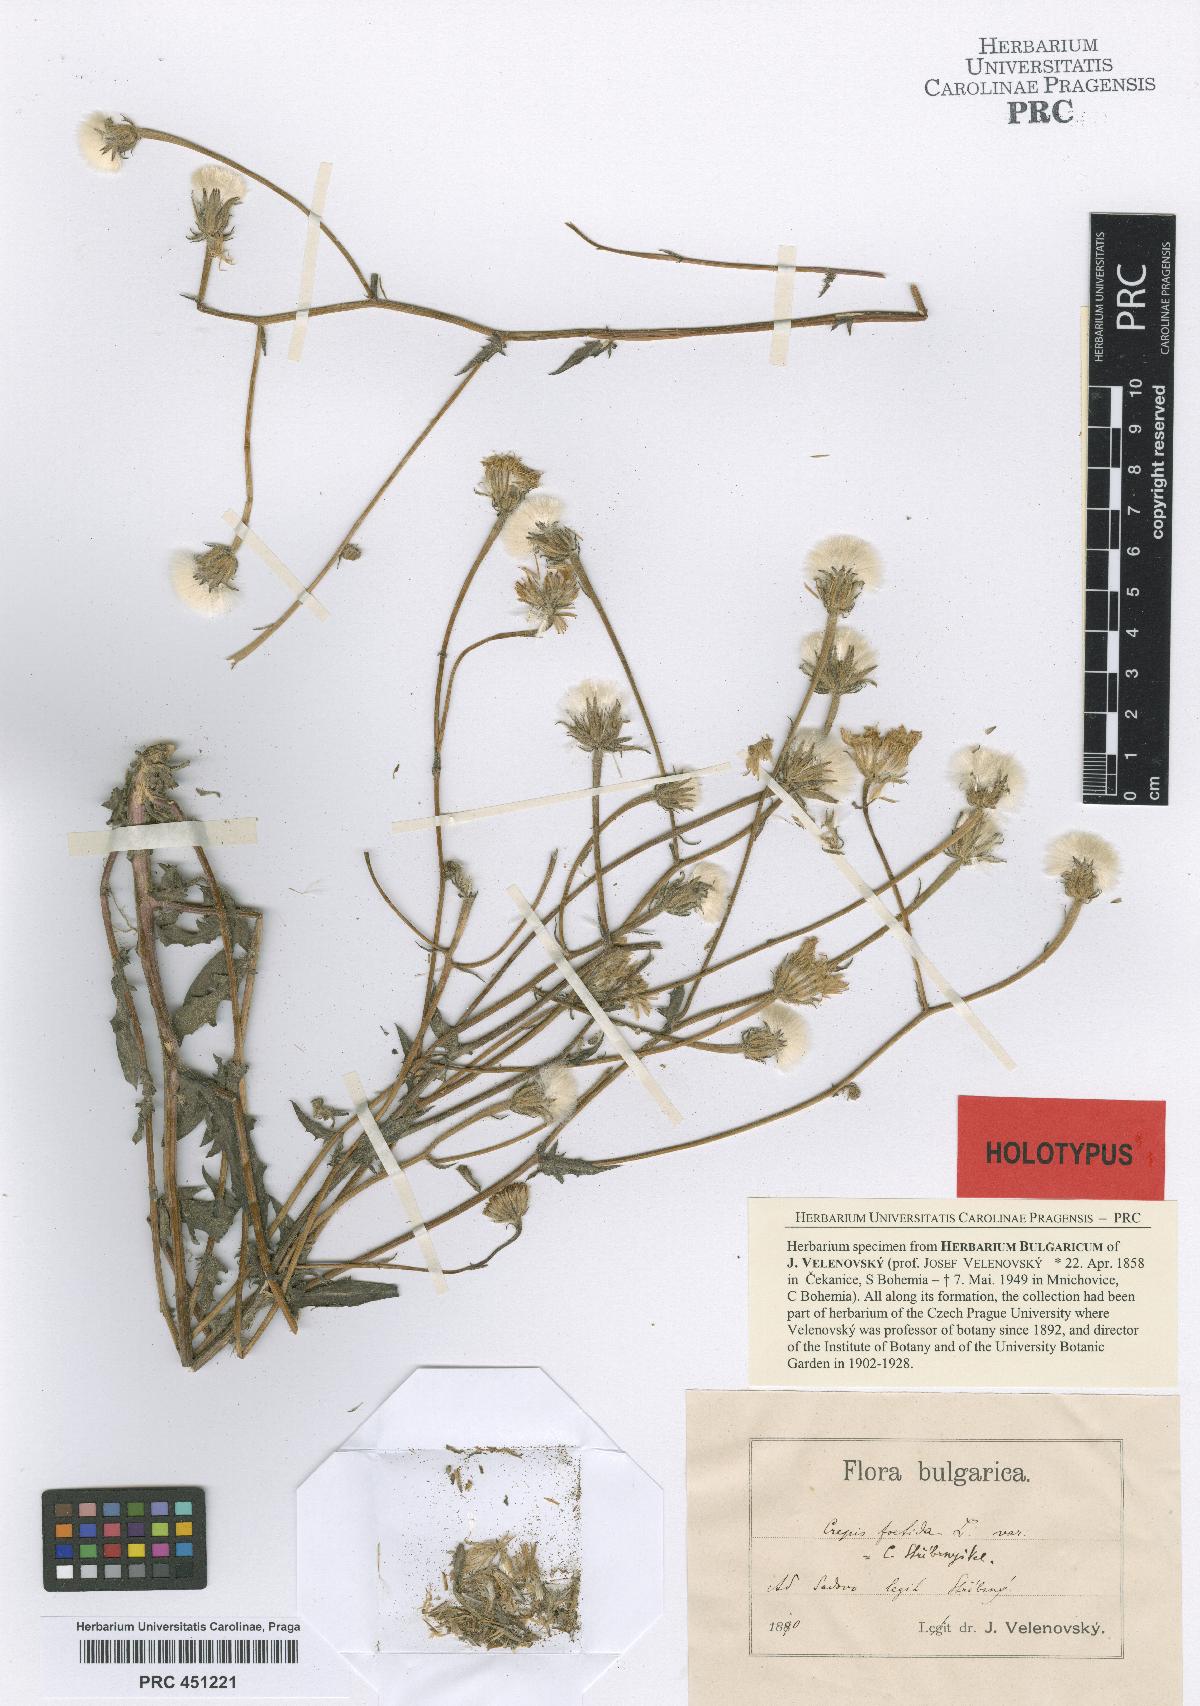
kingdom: Plantae
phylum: Tracheophyta
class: Magnoliopsida
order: Asterales
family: Asteraceae
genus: Crepis
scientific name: Crepis foetida
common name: Stinking hawk's-beard
